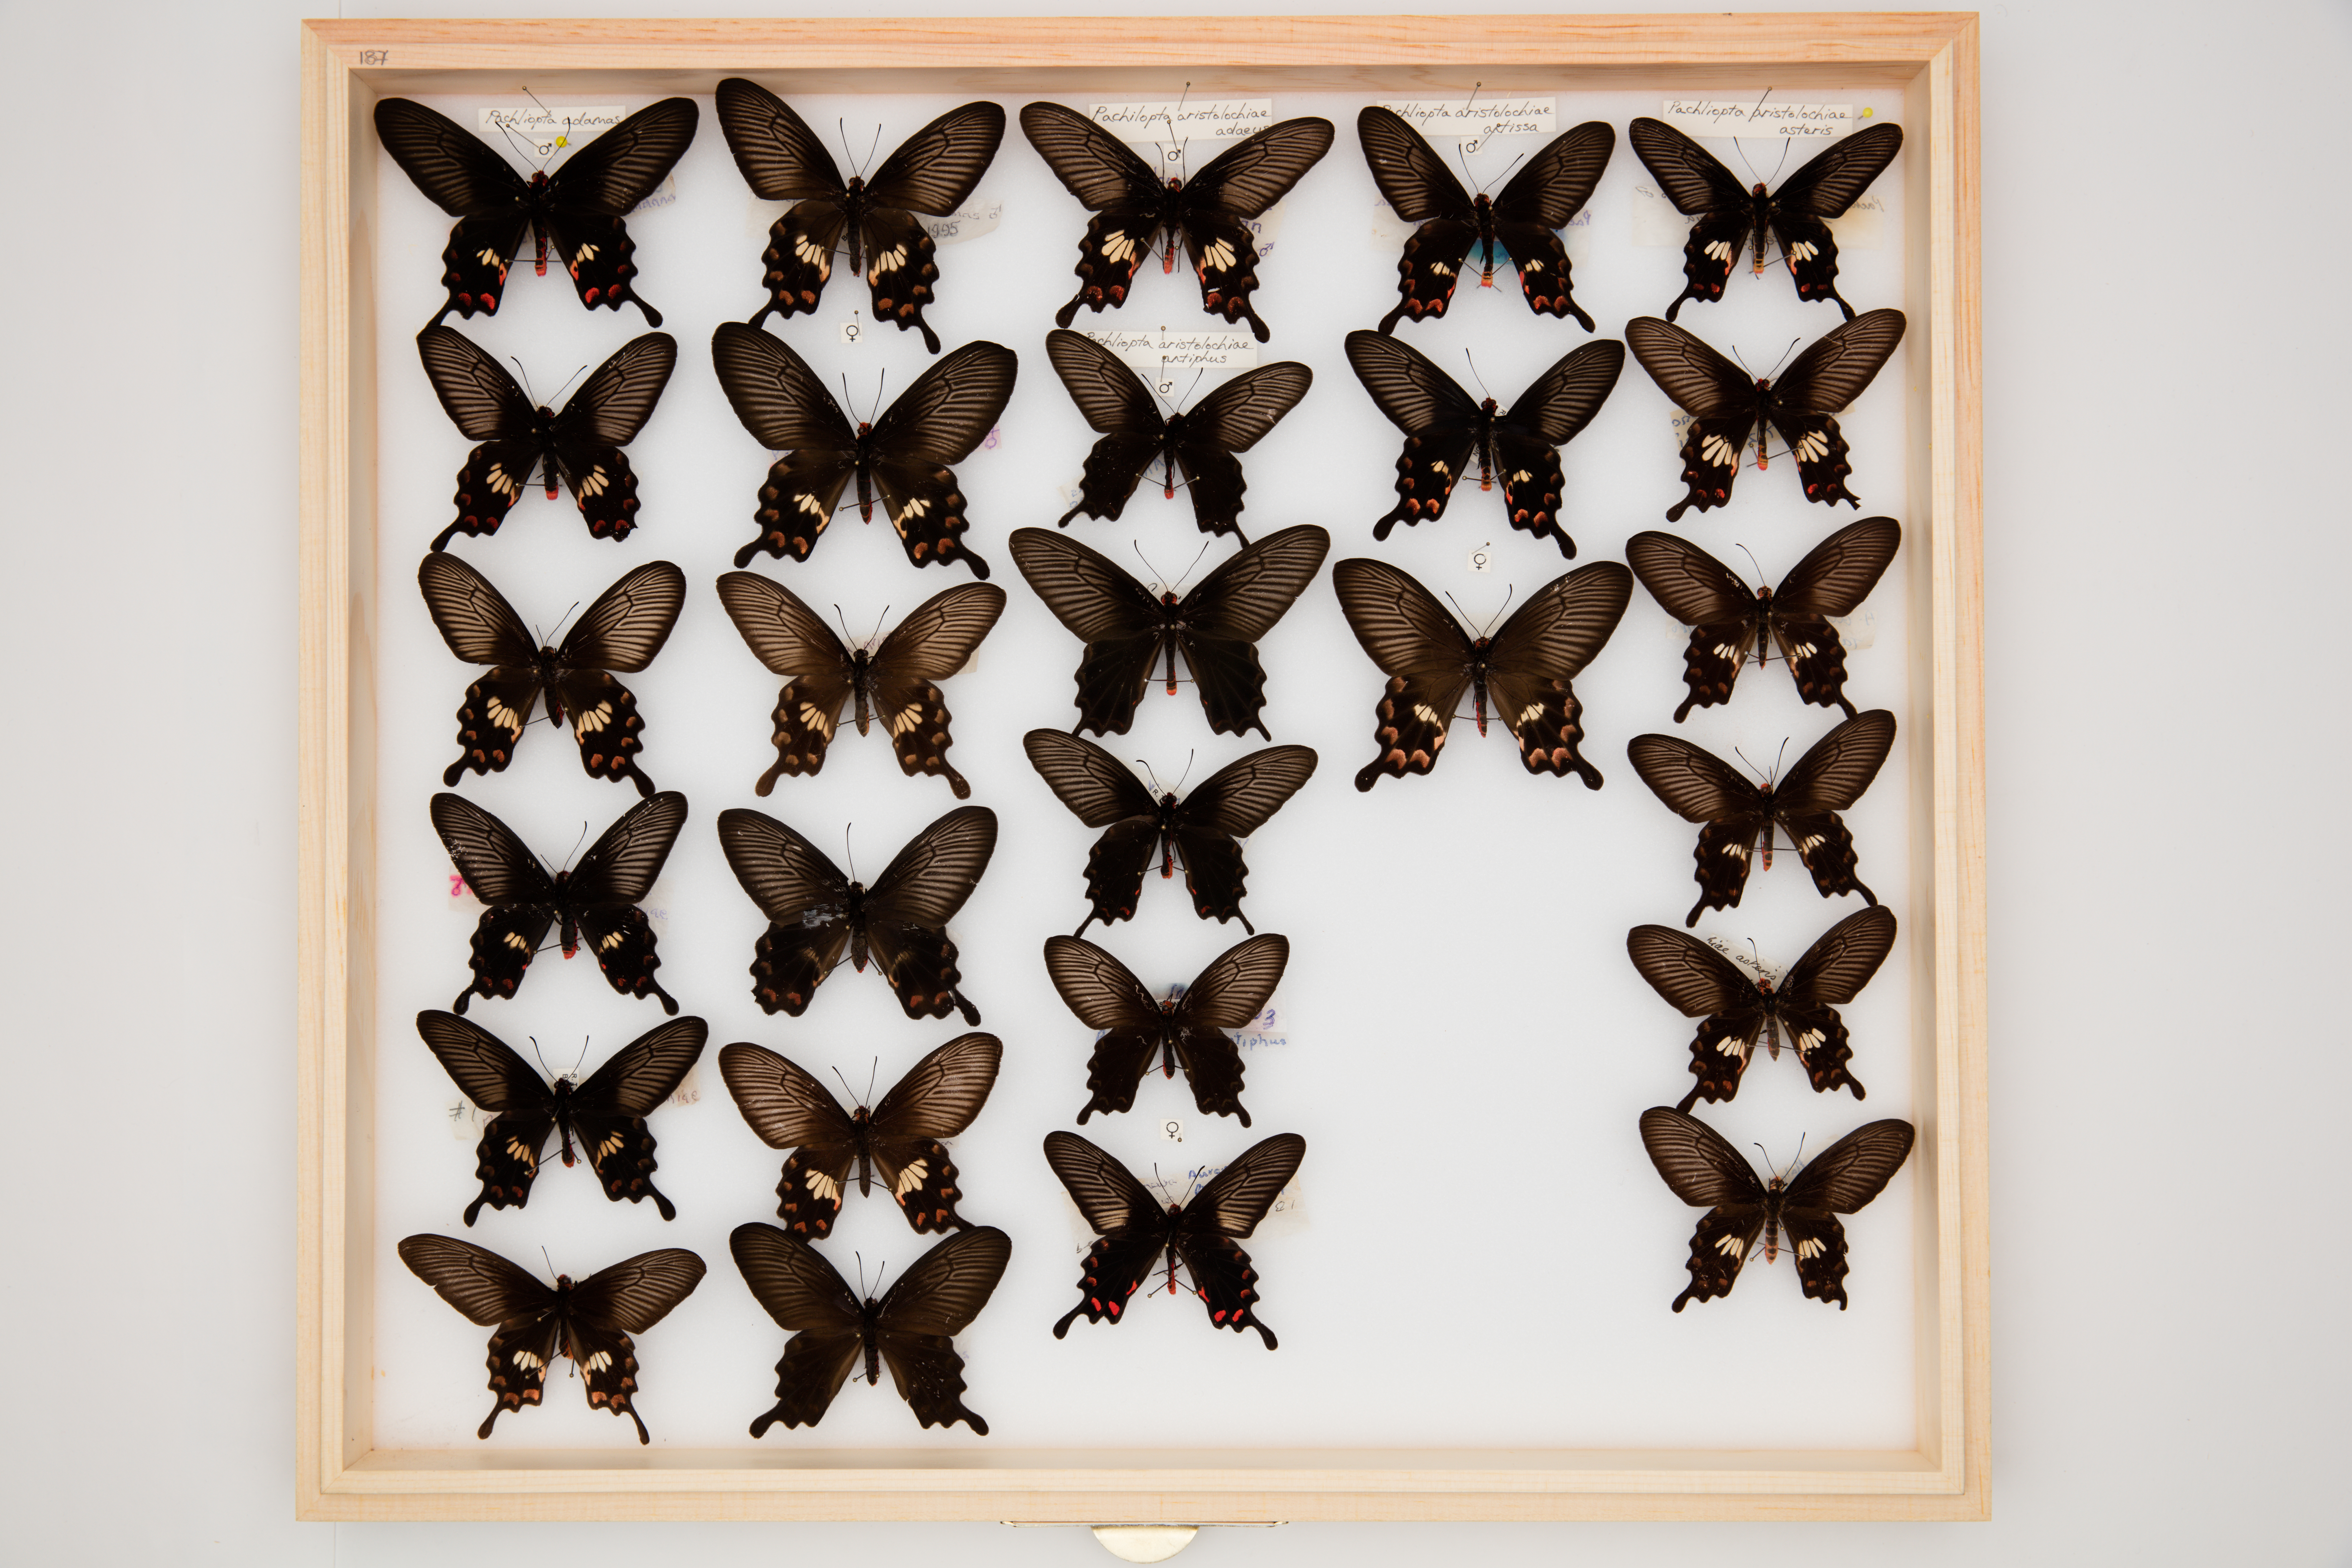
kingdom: Animalia
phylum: Arthropoda
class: Insecta
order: Lepidoptera
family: Papilionidae
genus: Pachliopta
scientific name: Pachliopta aristolochiae
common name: Common rose
